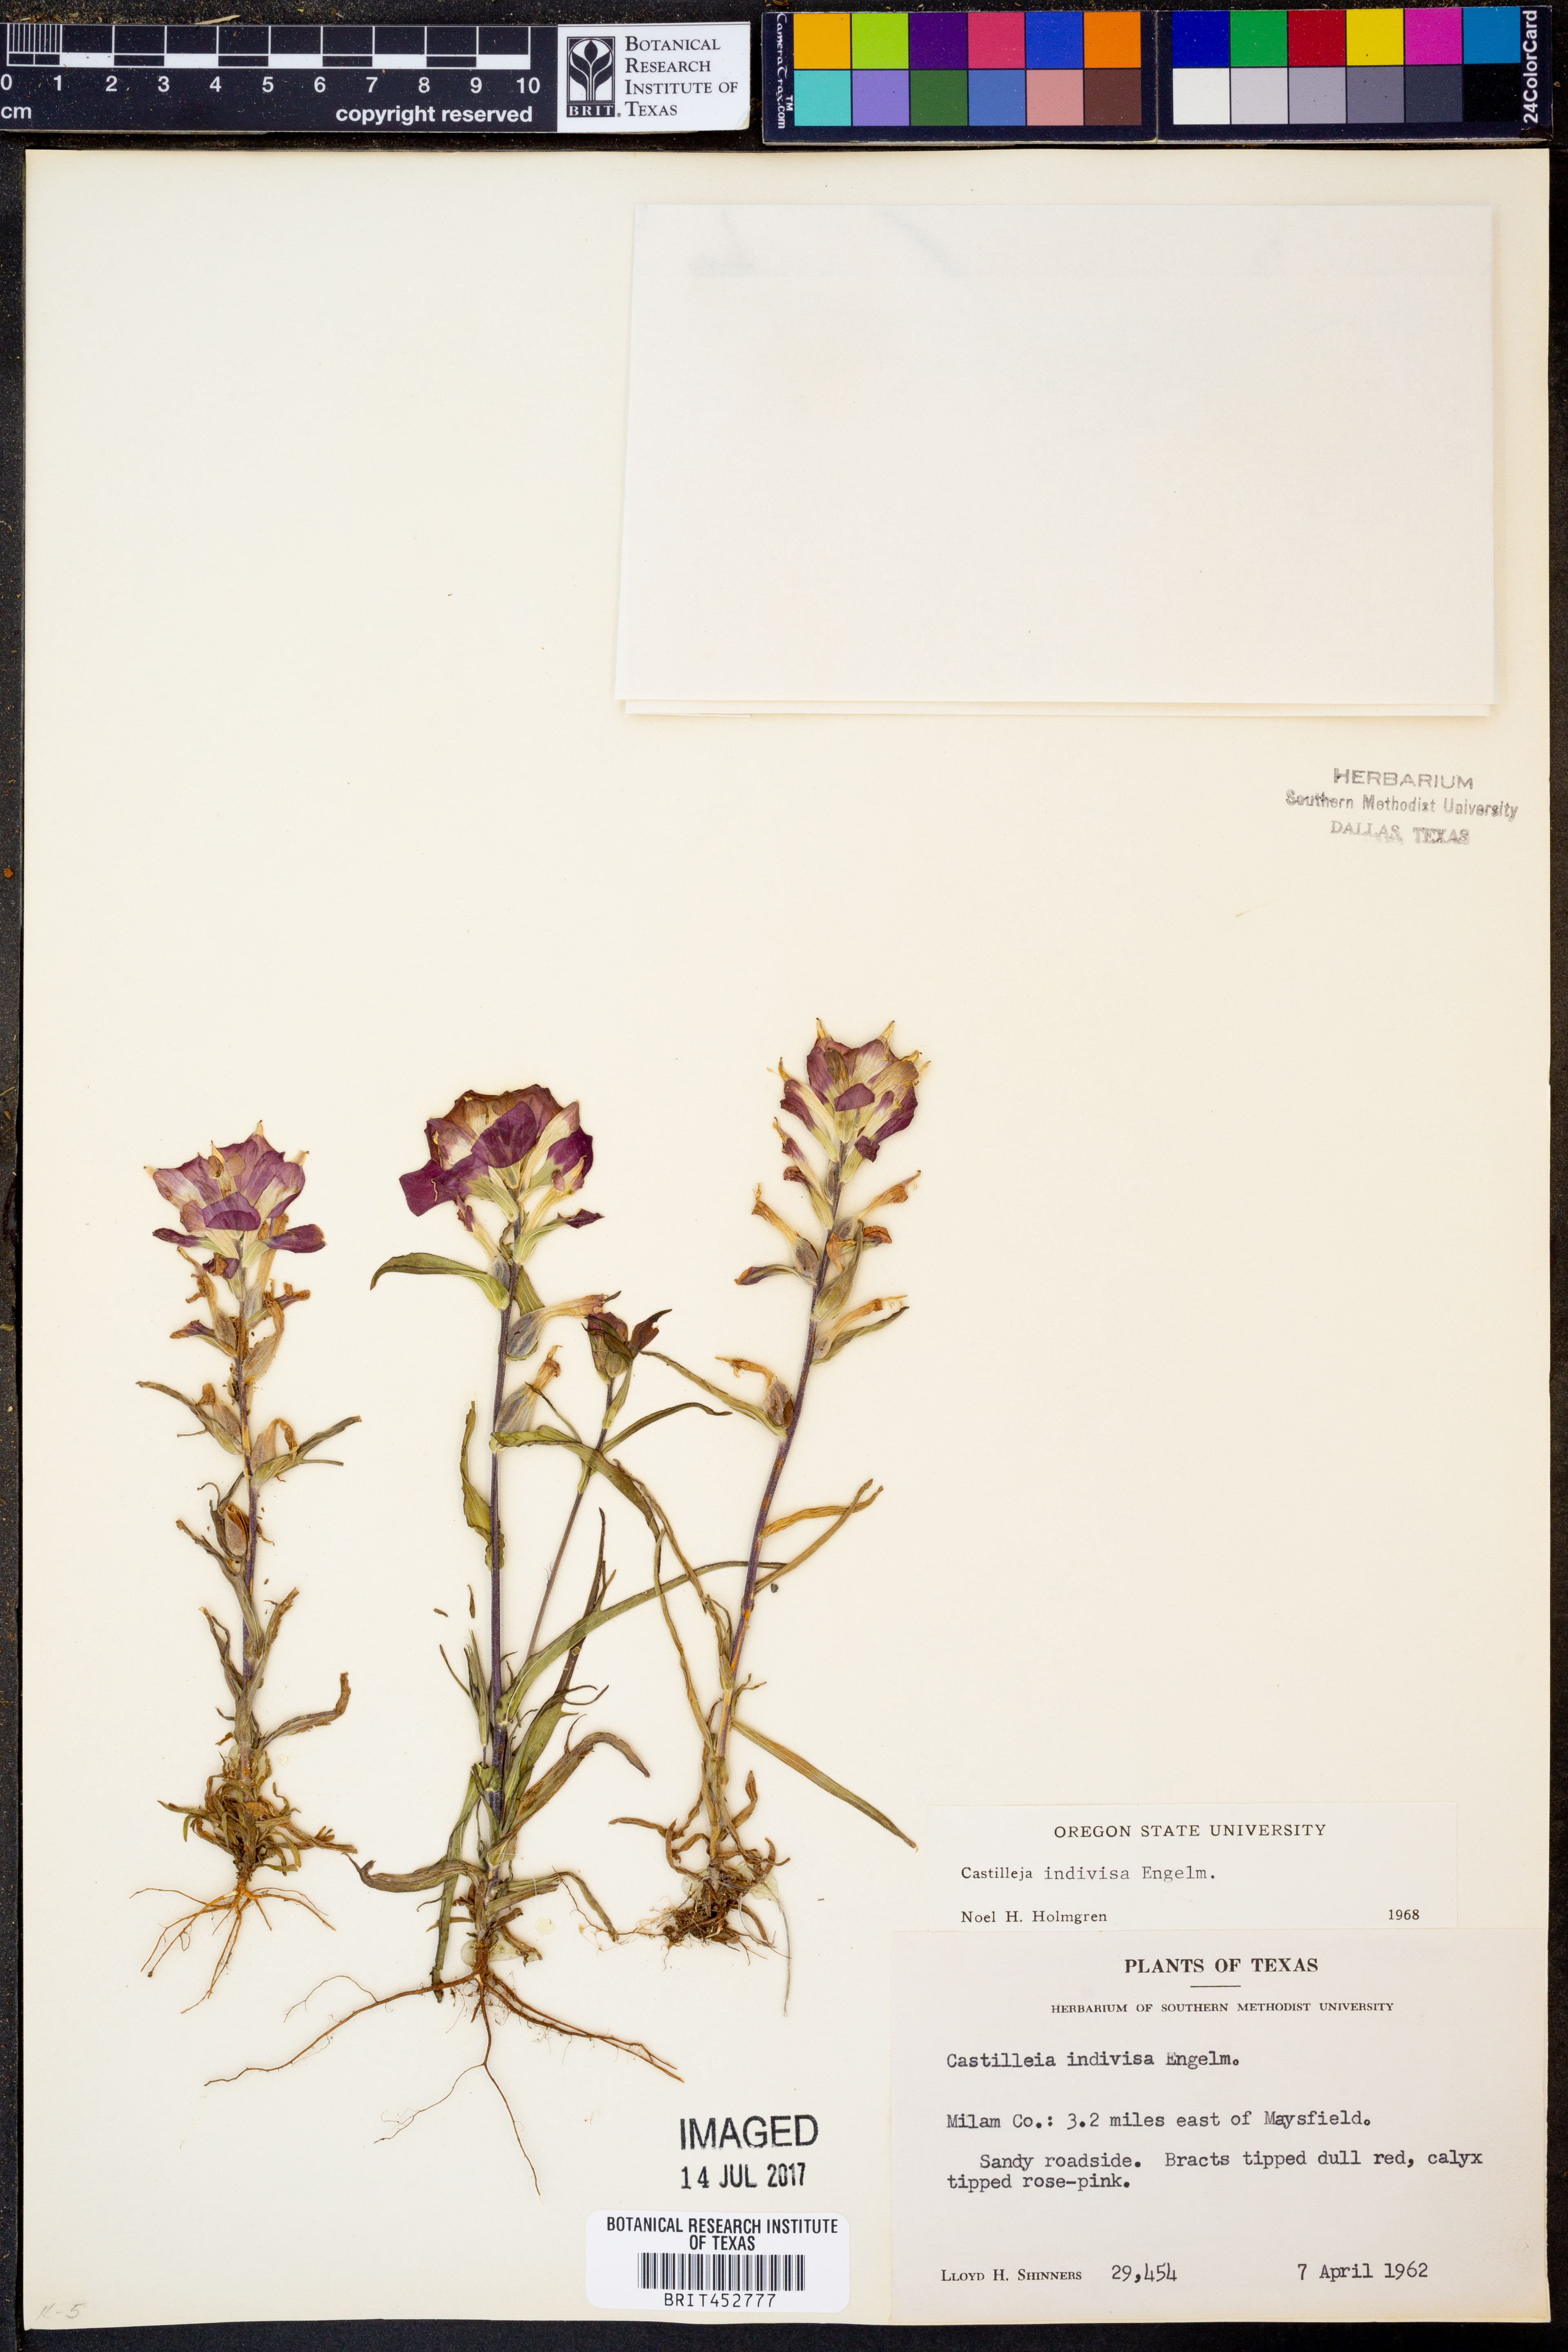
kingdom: Plantae
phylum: Tracheophyta
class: Magnoliopsida
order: Lamiales
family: Orobanchaceae
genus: Castilleja
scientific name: Castilleja indivisa
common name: Texas paintbrush
